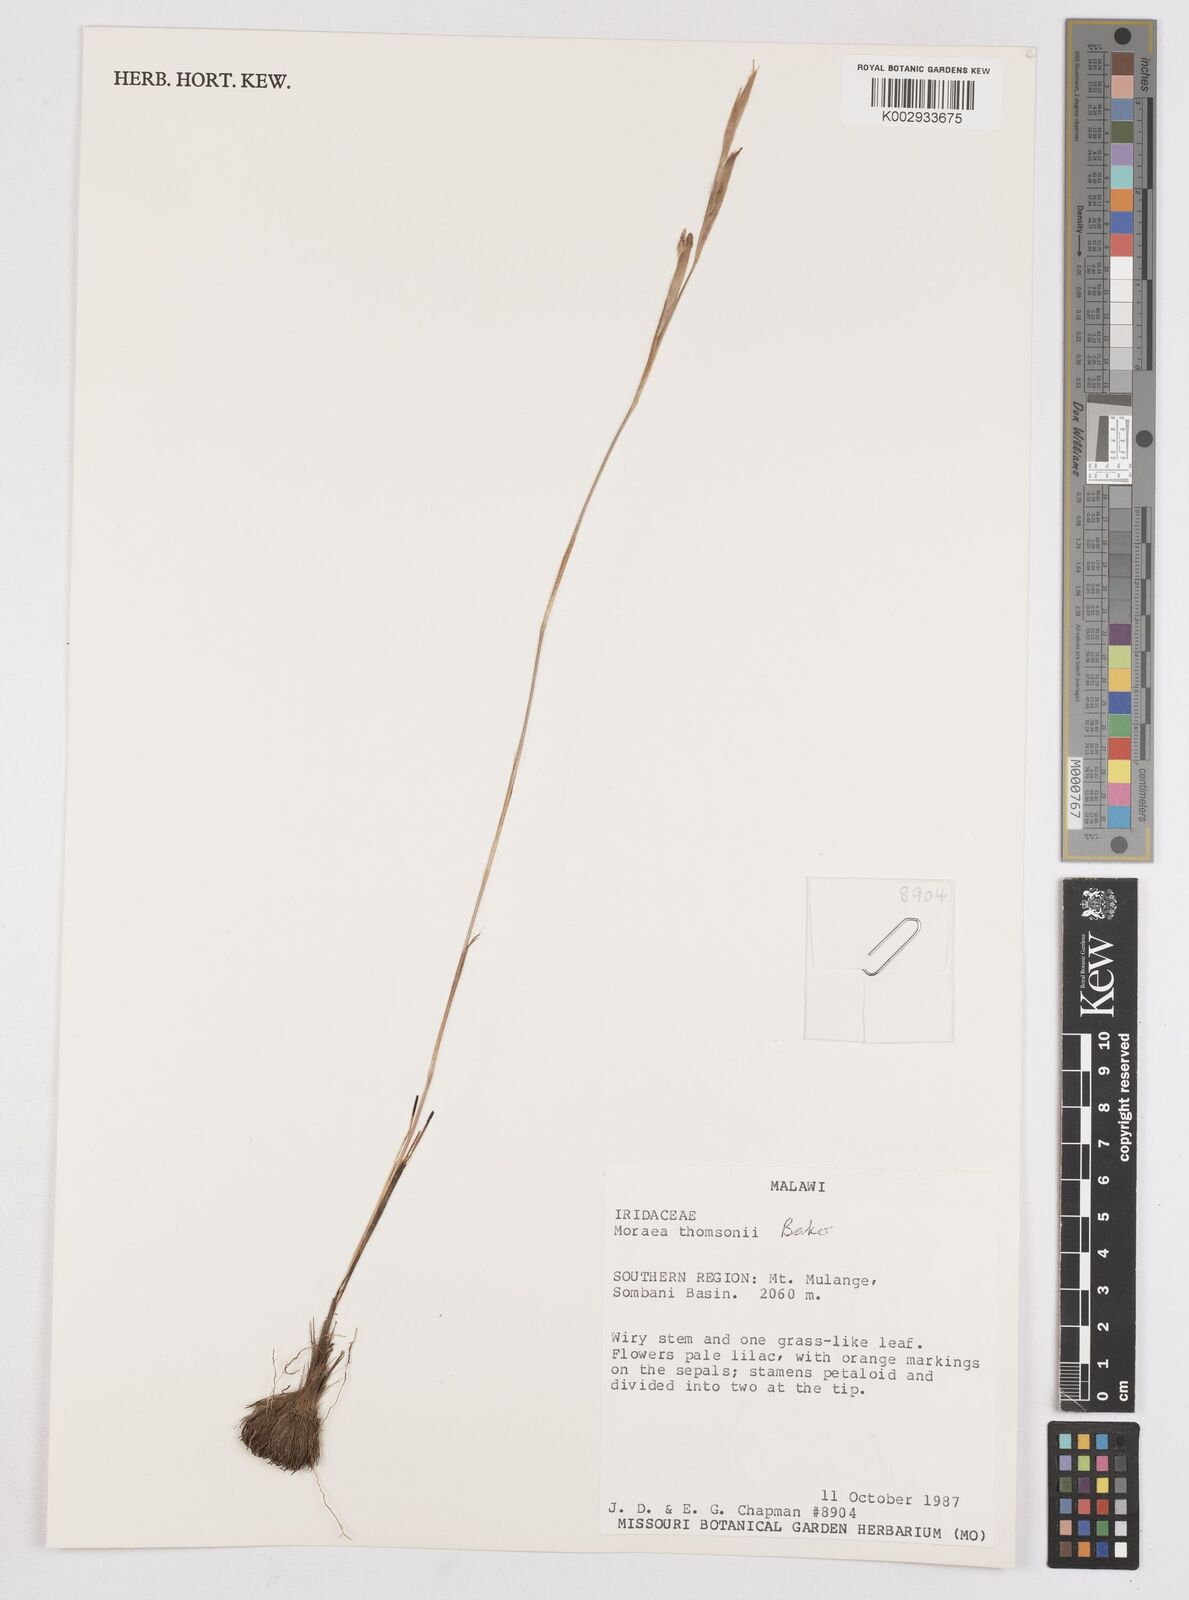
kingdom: Plantae
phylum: Tracheophyta
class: Liliopsida
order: Asparagales
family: Iridaceae
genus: Moraea
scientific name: Moraea thomsonii
